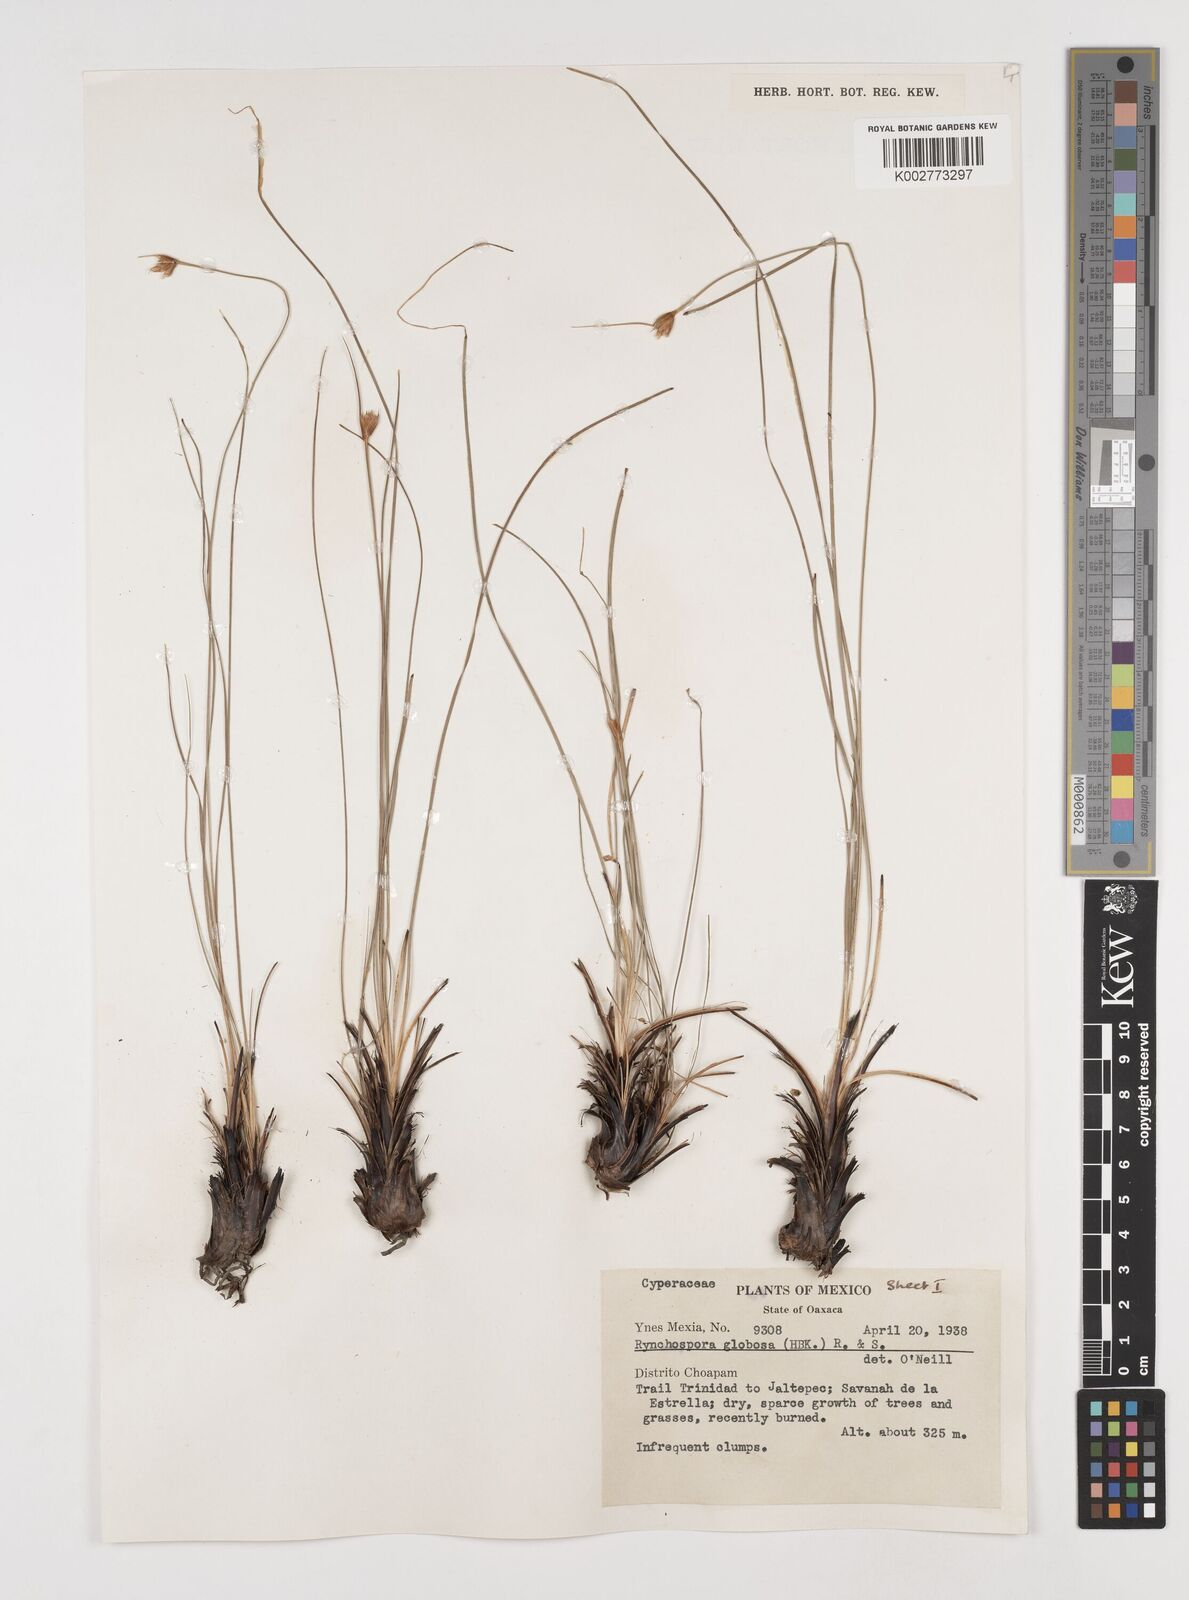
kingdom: Plantae
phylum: Tracheophyta
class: Liliopsida
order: Poales
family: Cyperaceae
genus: Rhynchospora
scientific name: Rhynchospora globosa
